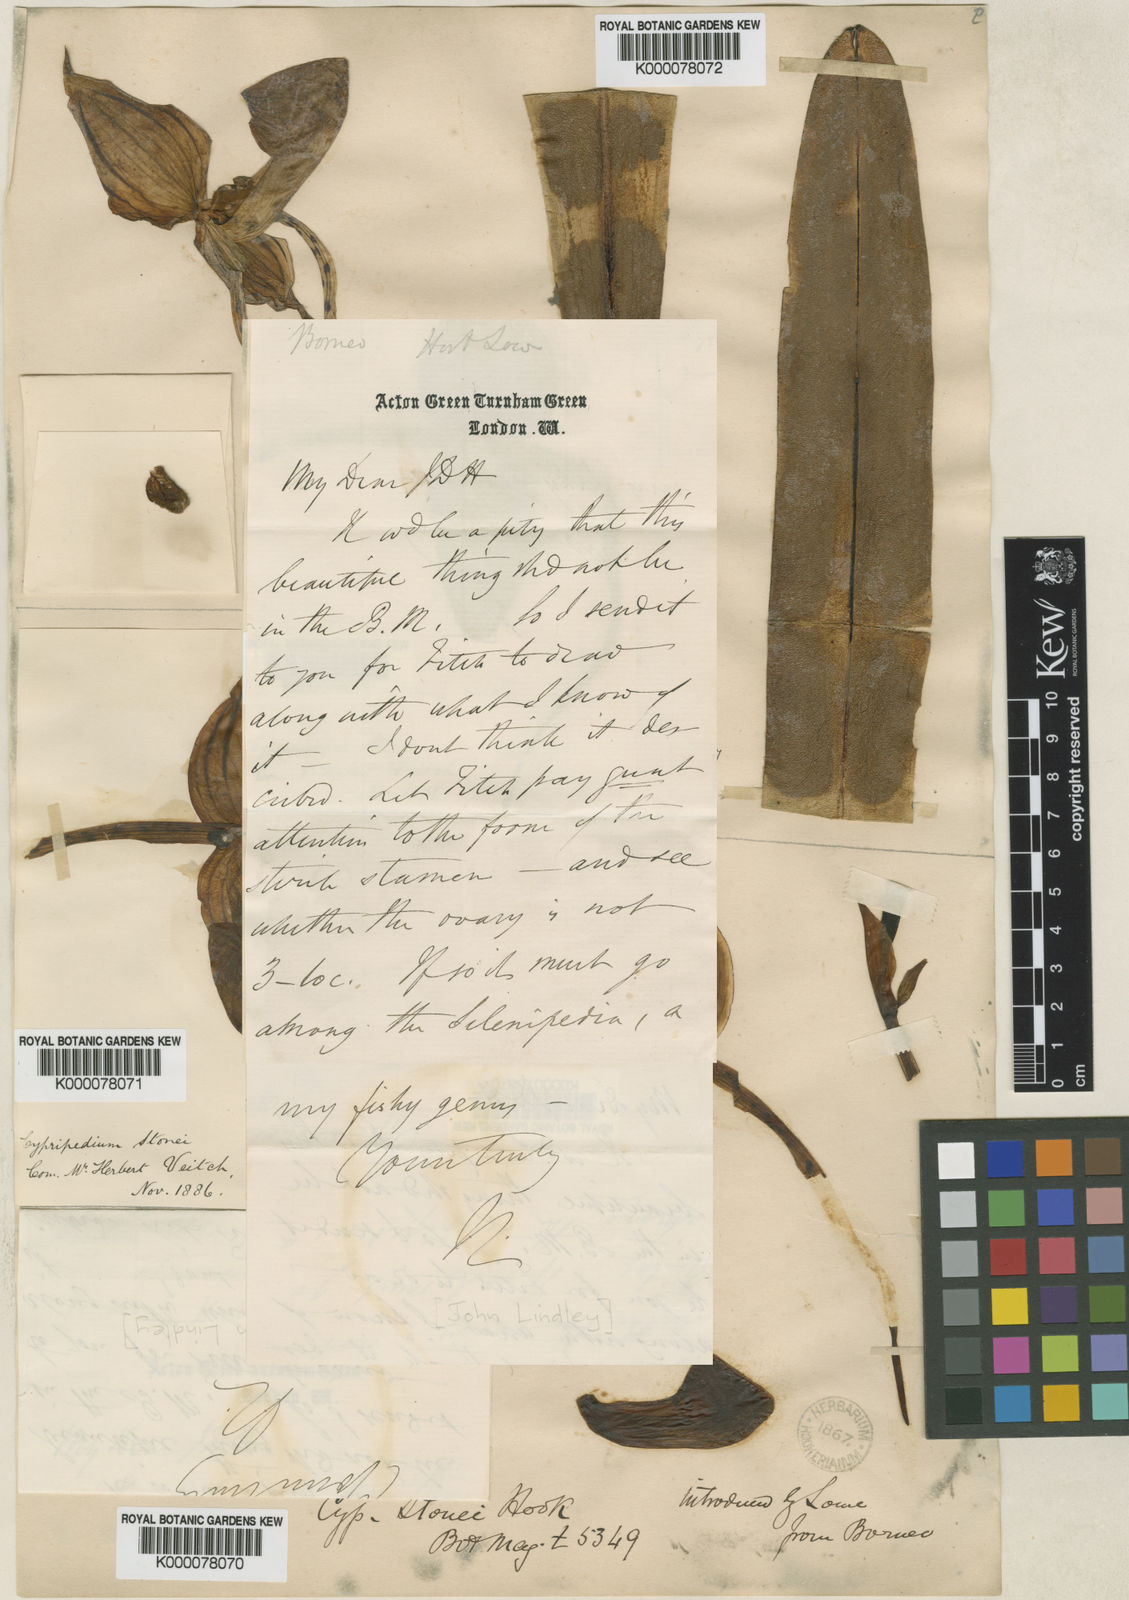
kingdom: Plantae
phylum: Tracheophyta
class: Liliopsida
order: Asparagales
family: Orchidaceae
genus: Paphiopedilum
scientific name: Paphiopedilum stonei
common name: Stone's paphiopedilum
